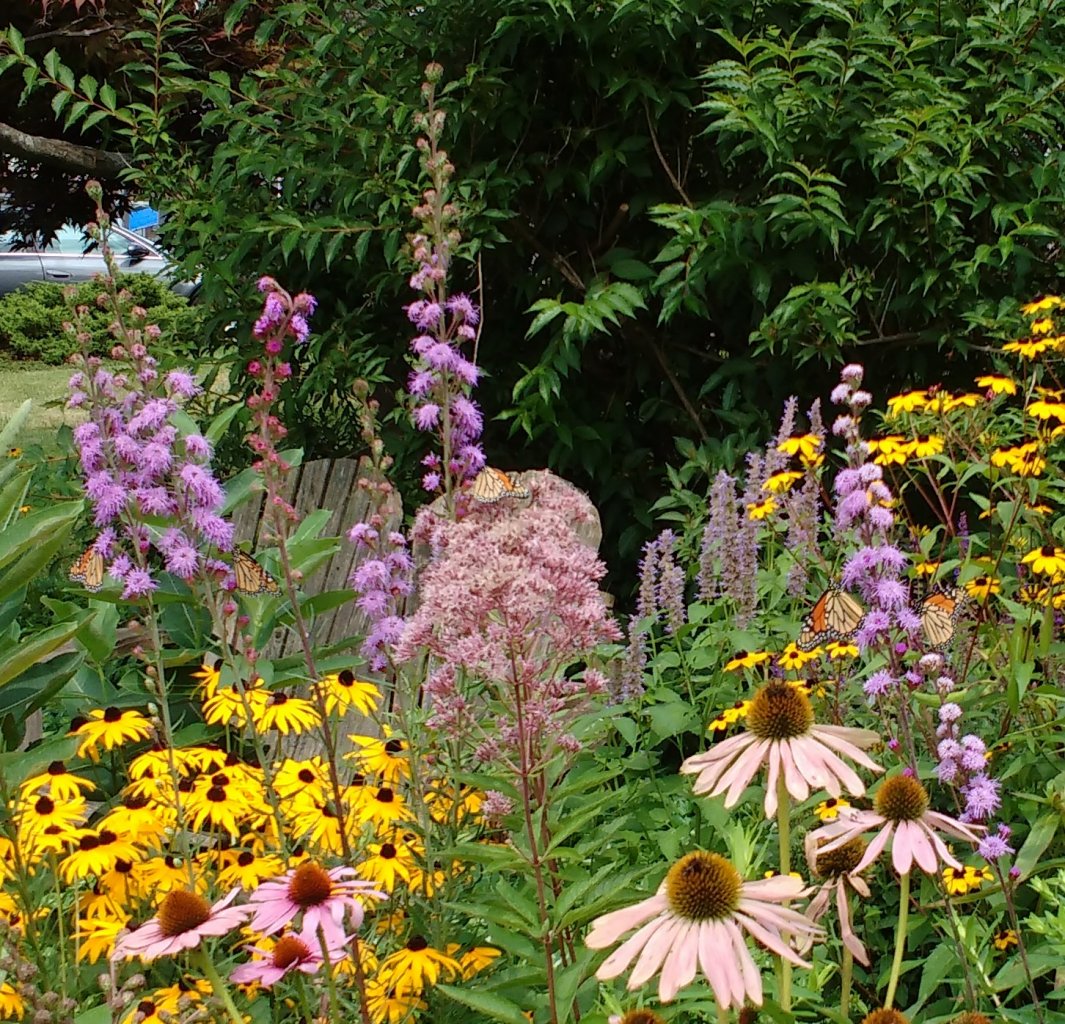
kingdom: Animalia
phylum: Arthropoda
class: Insecta
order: Lepidoptera
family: Nymphalidae
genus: Danaus
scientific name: Danaus plexippus
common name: Monarch
